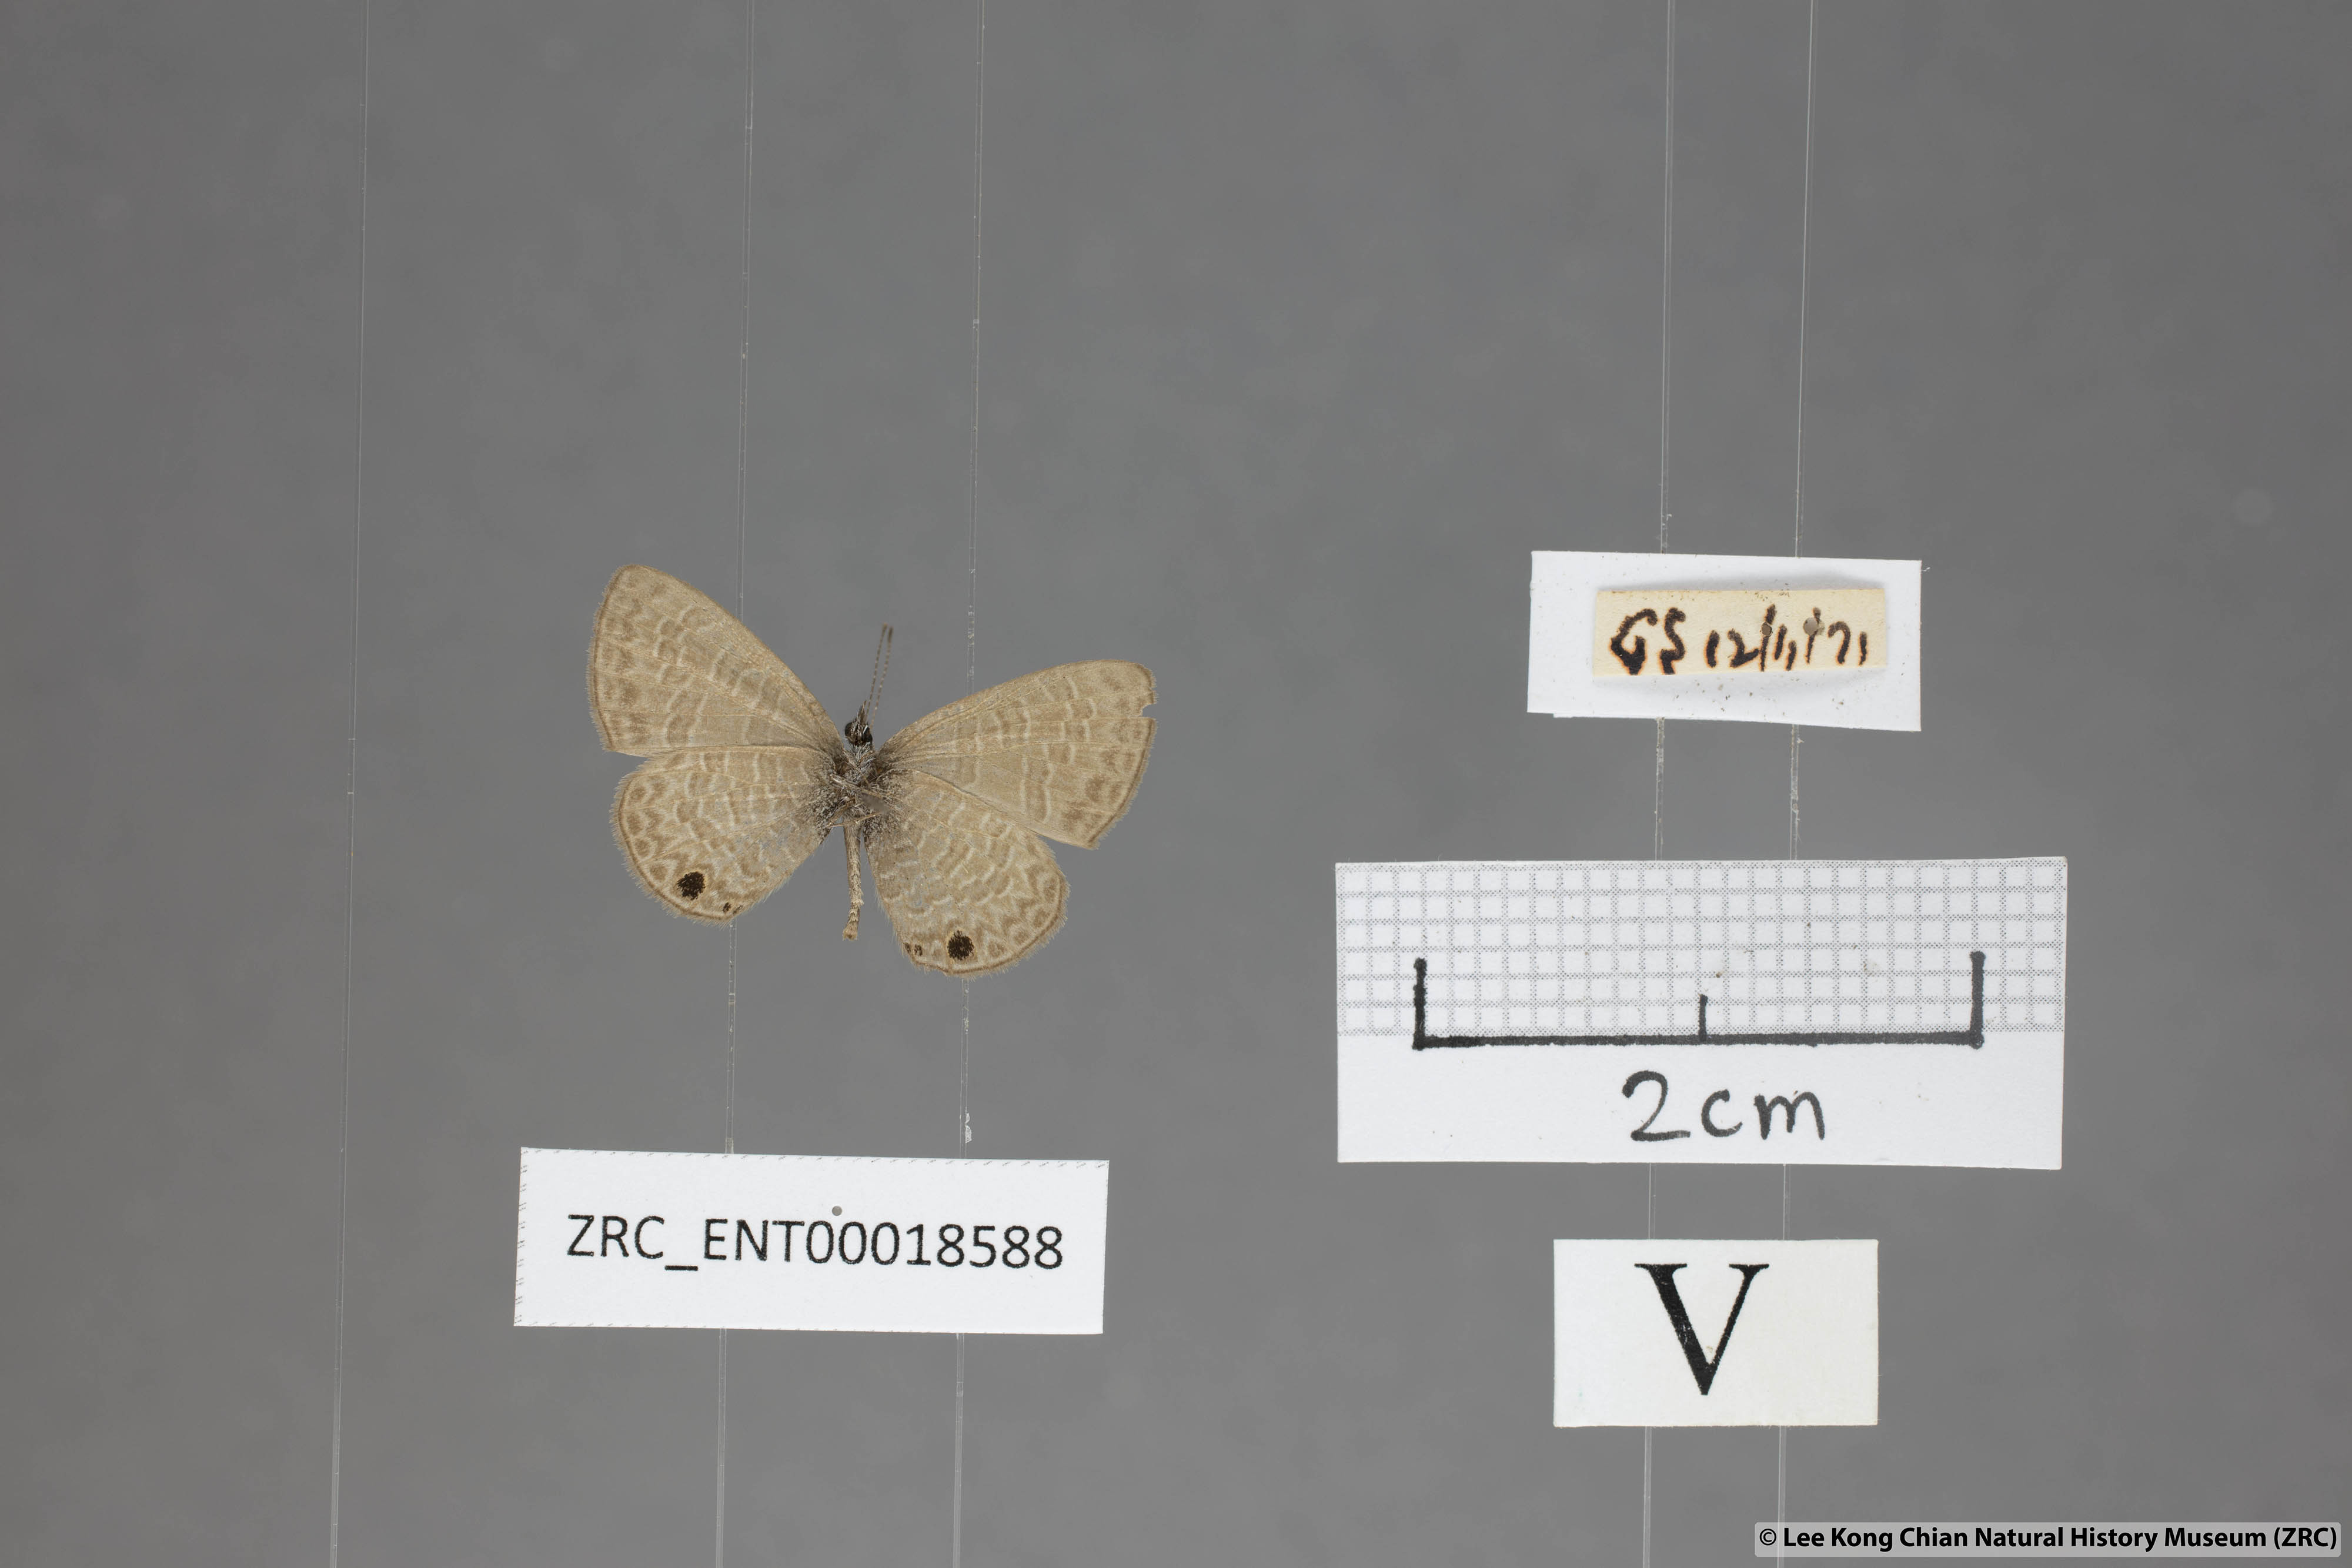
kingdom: Animalia
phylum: Arthropoda
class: Insecta
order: Lepidoptera
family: Lycaenidae
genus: Prosotas
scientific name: Prosotas dubiosa
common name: Tailless lineblue
